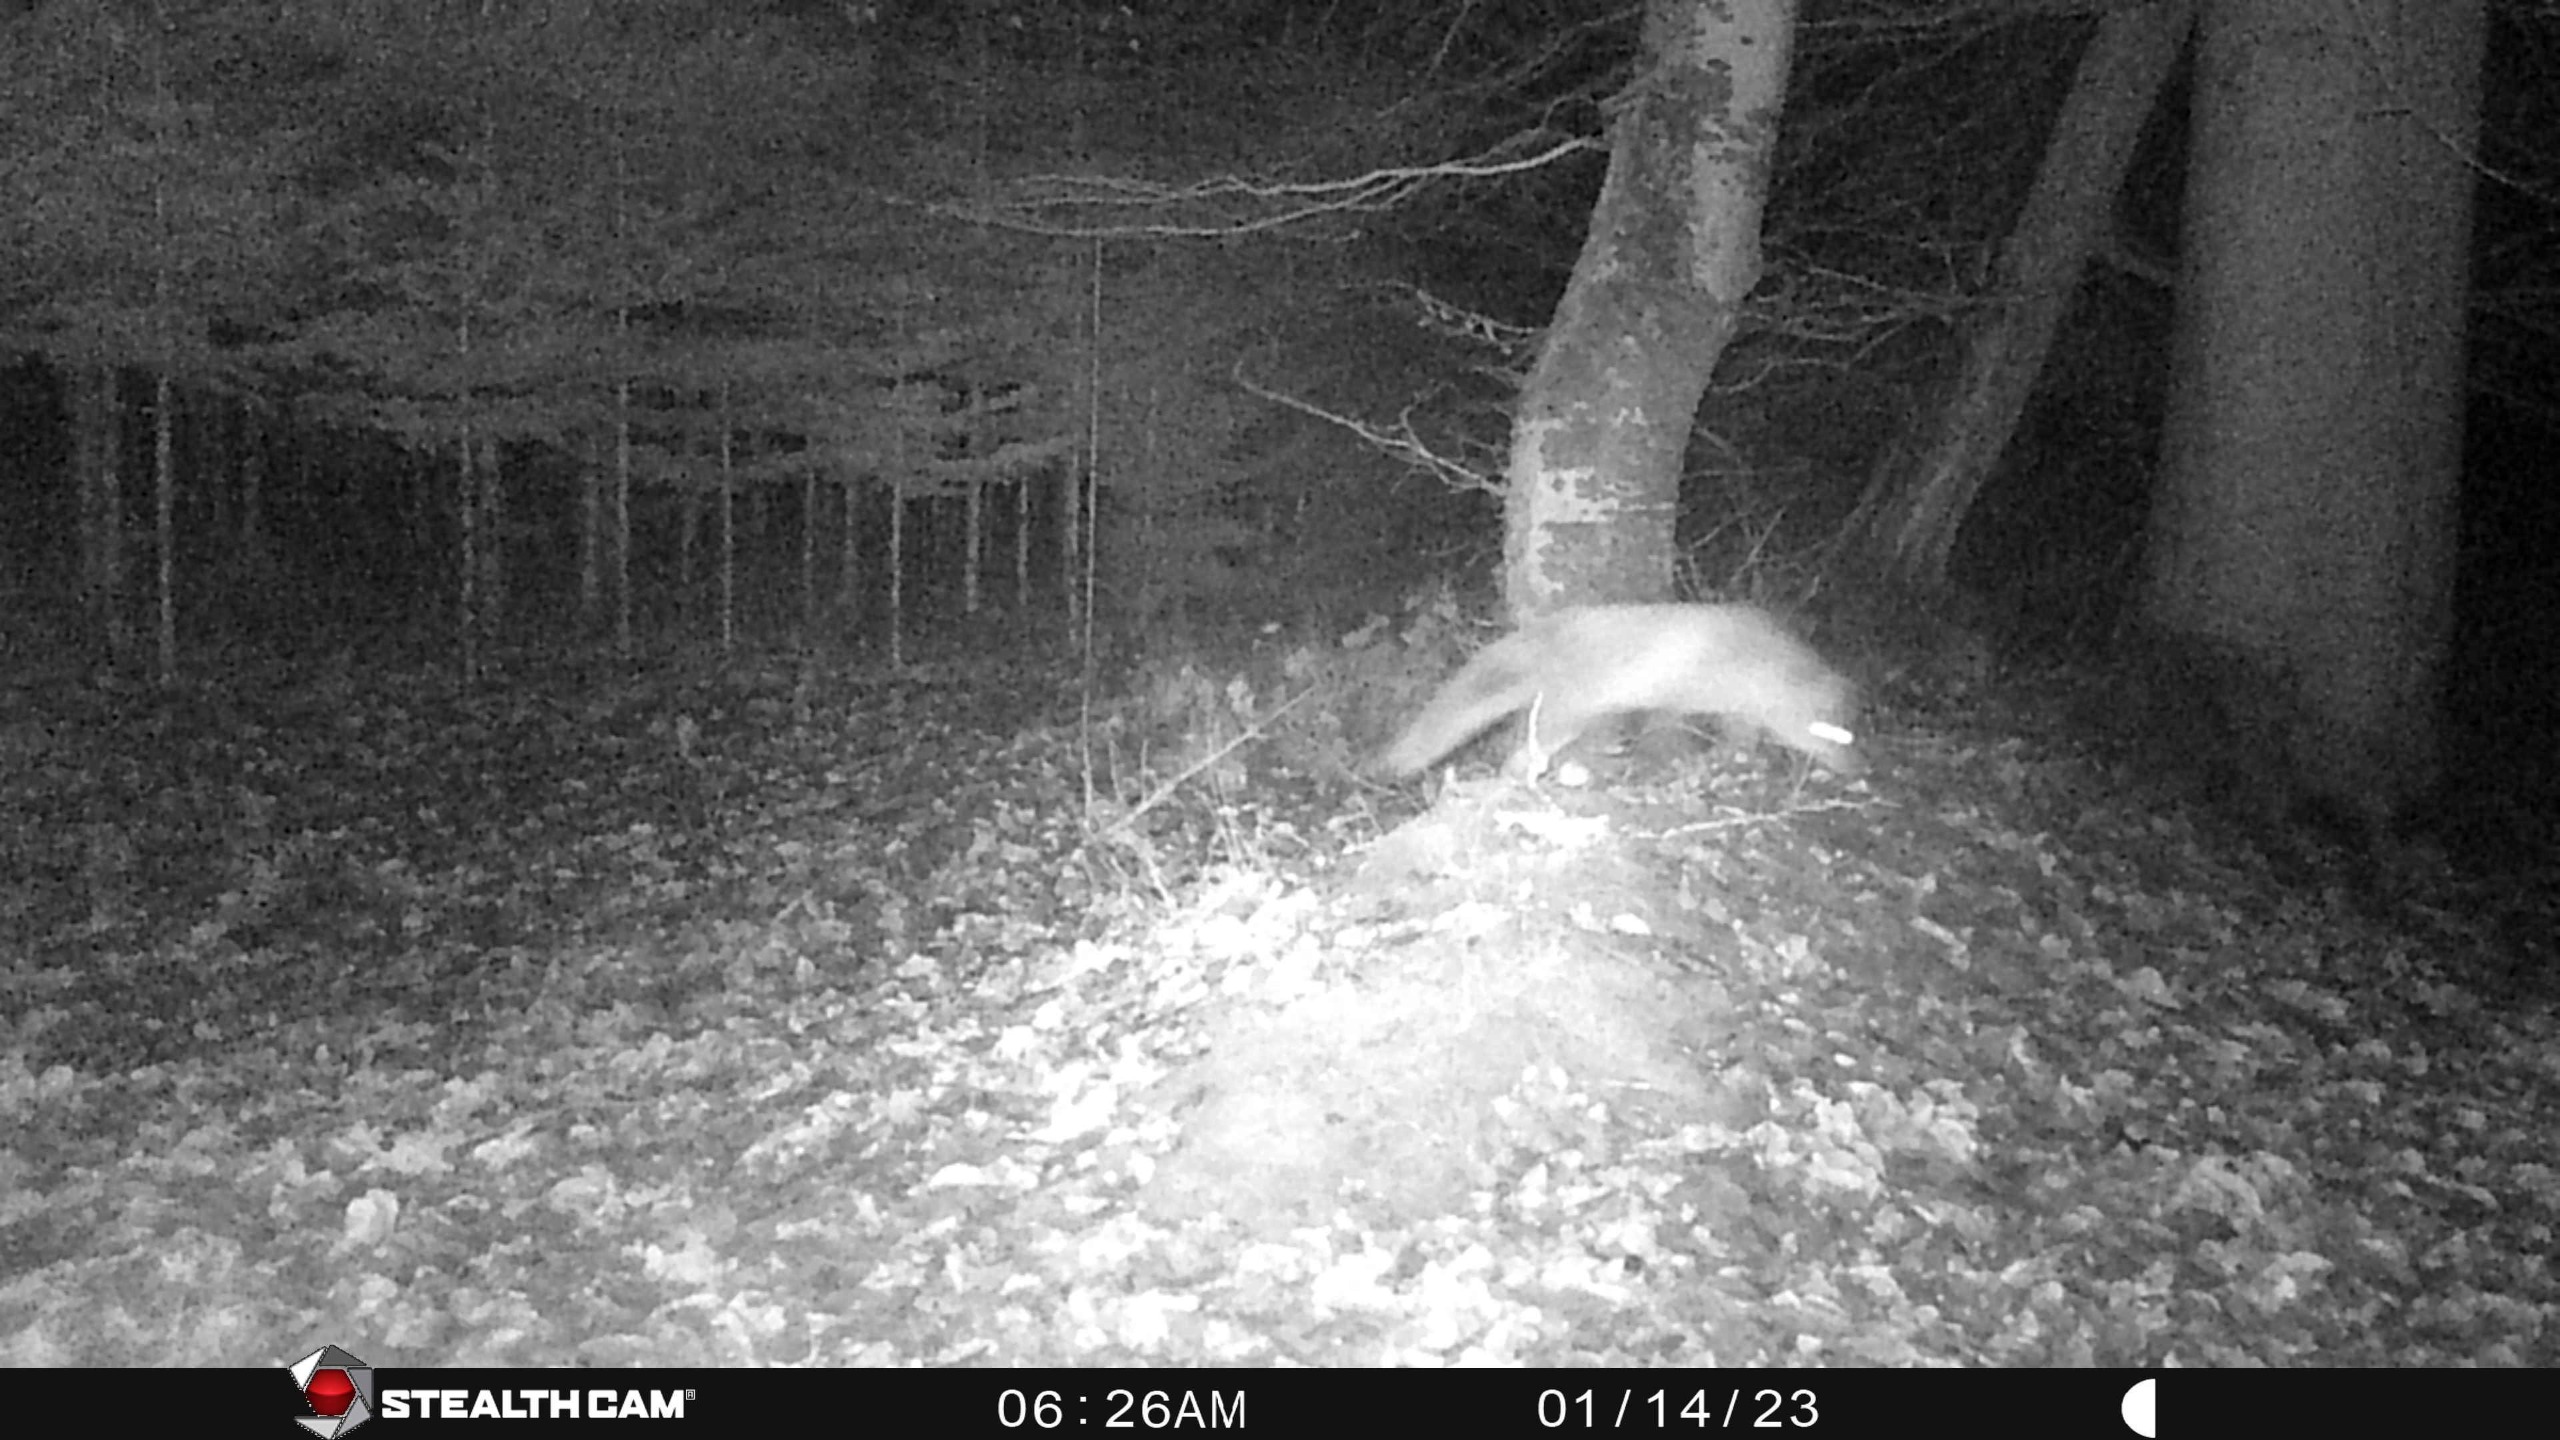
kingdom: Animalia
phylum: Chordata
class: Mammalia
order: Carnivora
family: Canidae
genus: Vulpes
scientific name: Vulpes vulpes
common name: Ræv
